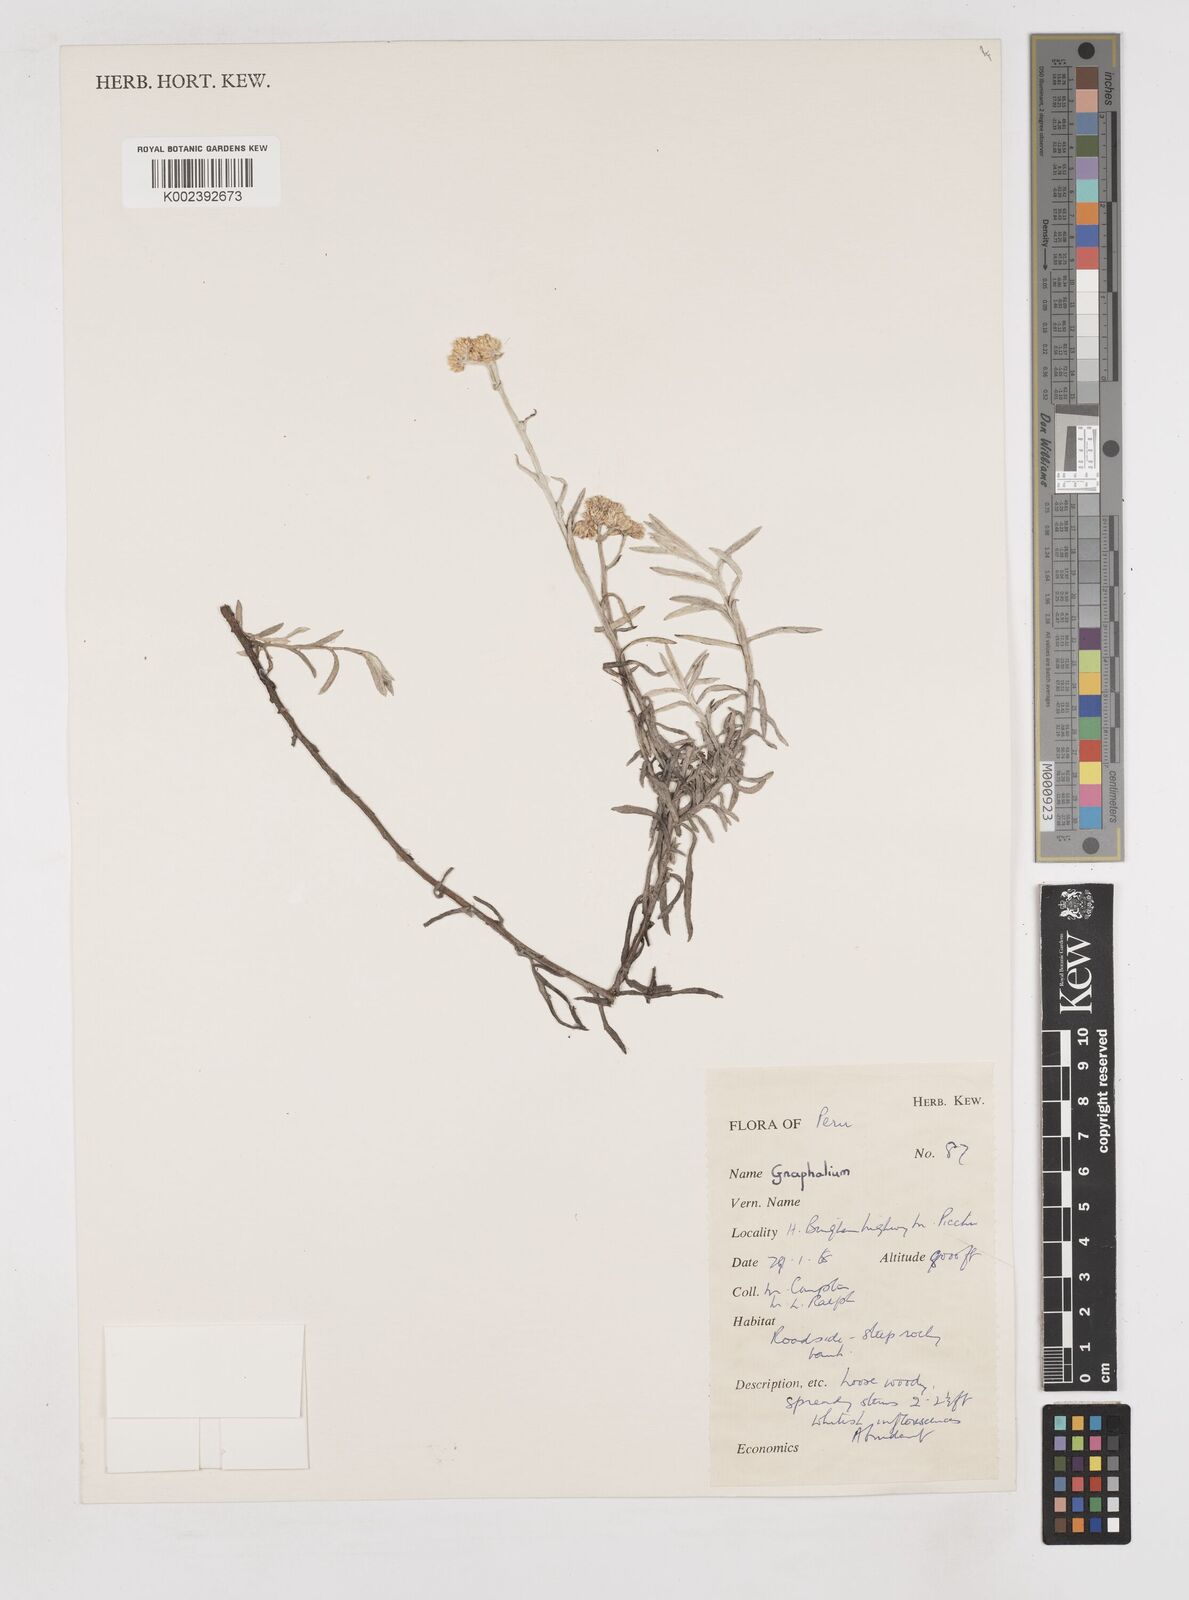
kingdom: Plantae
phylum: Tracheophyta
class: Magnoliopsida
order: Asterales
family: Asteraceae
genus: Gnaphalium
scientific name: Gnaphalium
